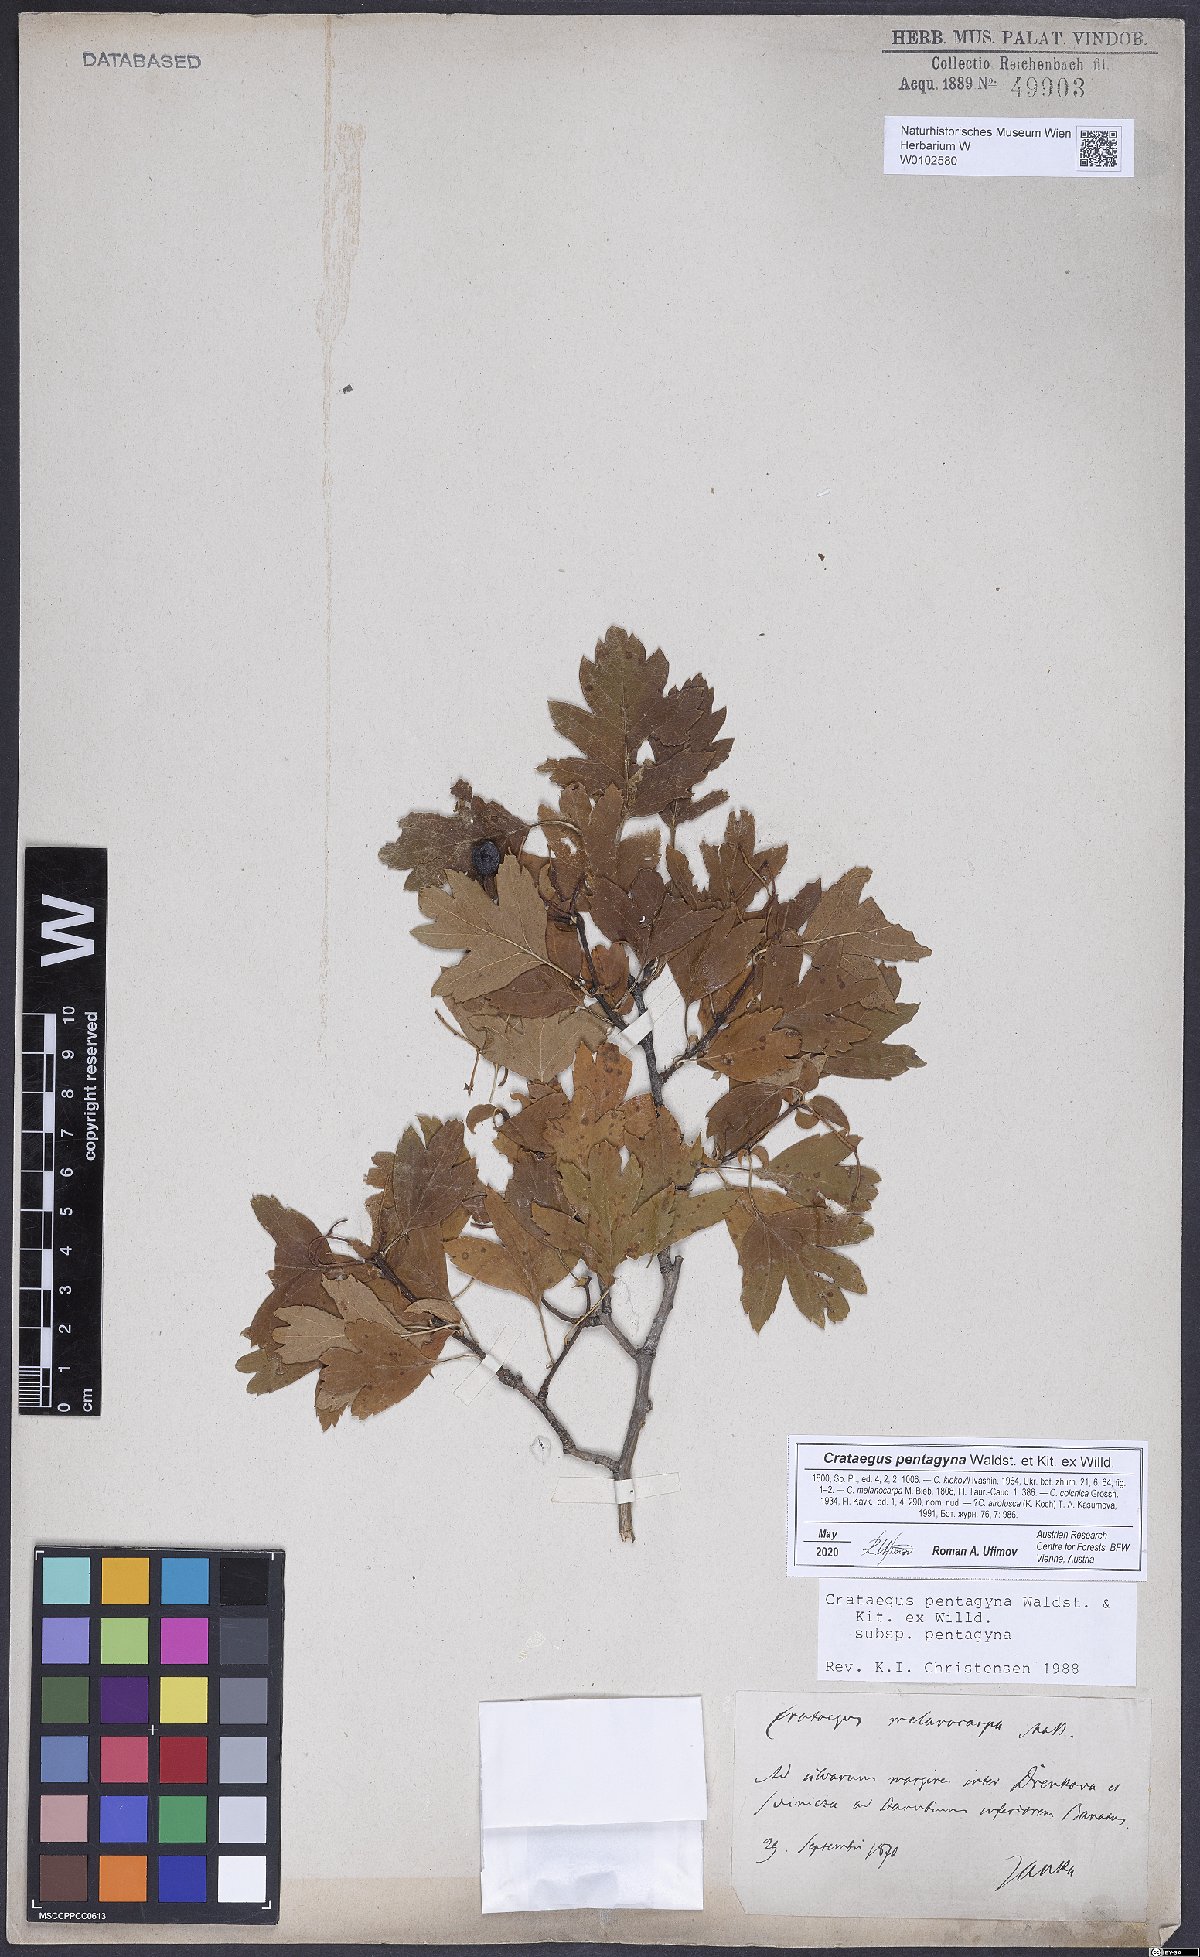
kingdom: Plantae
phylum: Tracheophyta
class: Magnoliopsida
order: Rosales
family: Rosaceae
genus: Crataegus
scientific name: Crataegus pentagyna
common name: Small-flowered black hawthorn
